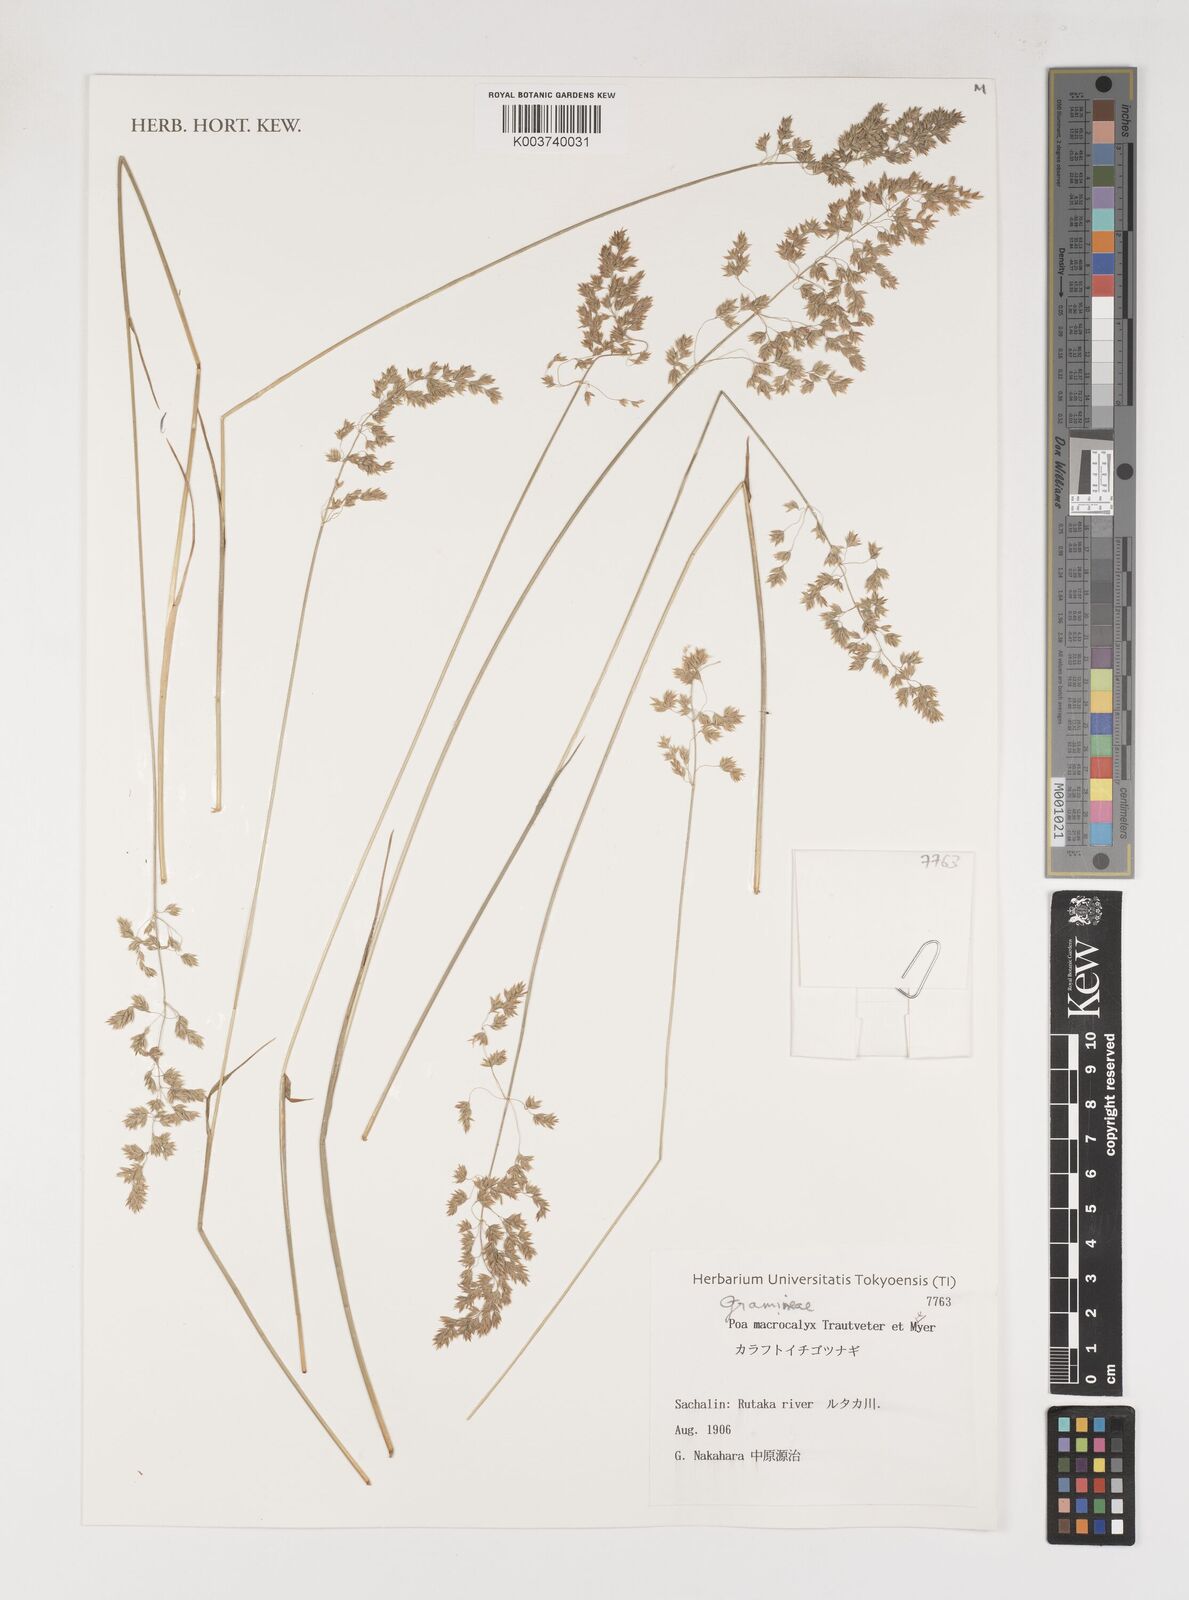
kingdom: Plantae
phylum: Tracheophyta
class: Liliopsida
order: Poales
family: Poaceae
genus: Poa
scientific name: Poa macrocalyx
